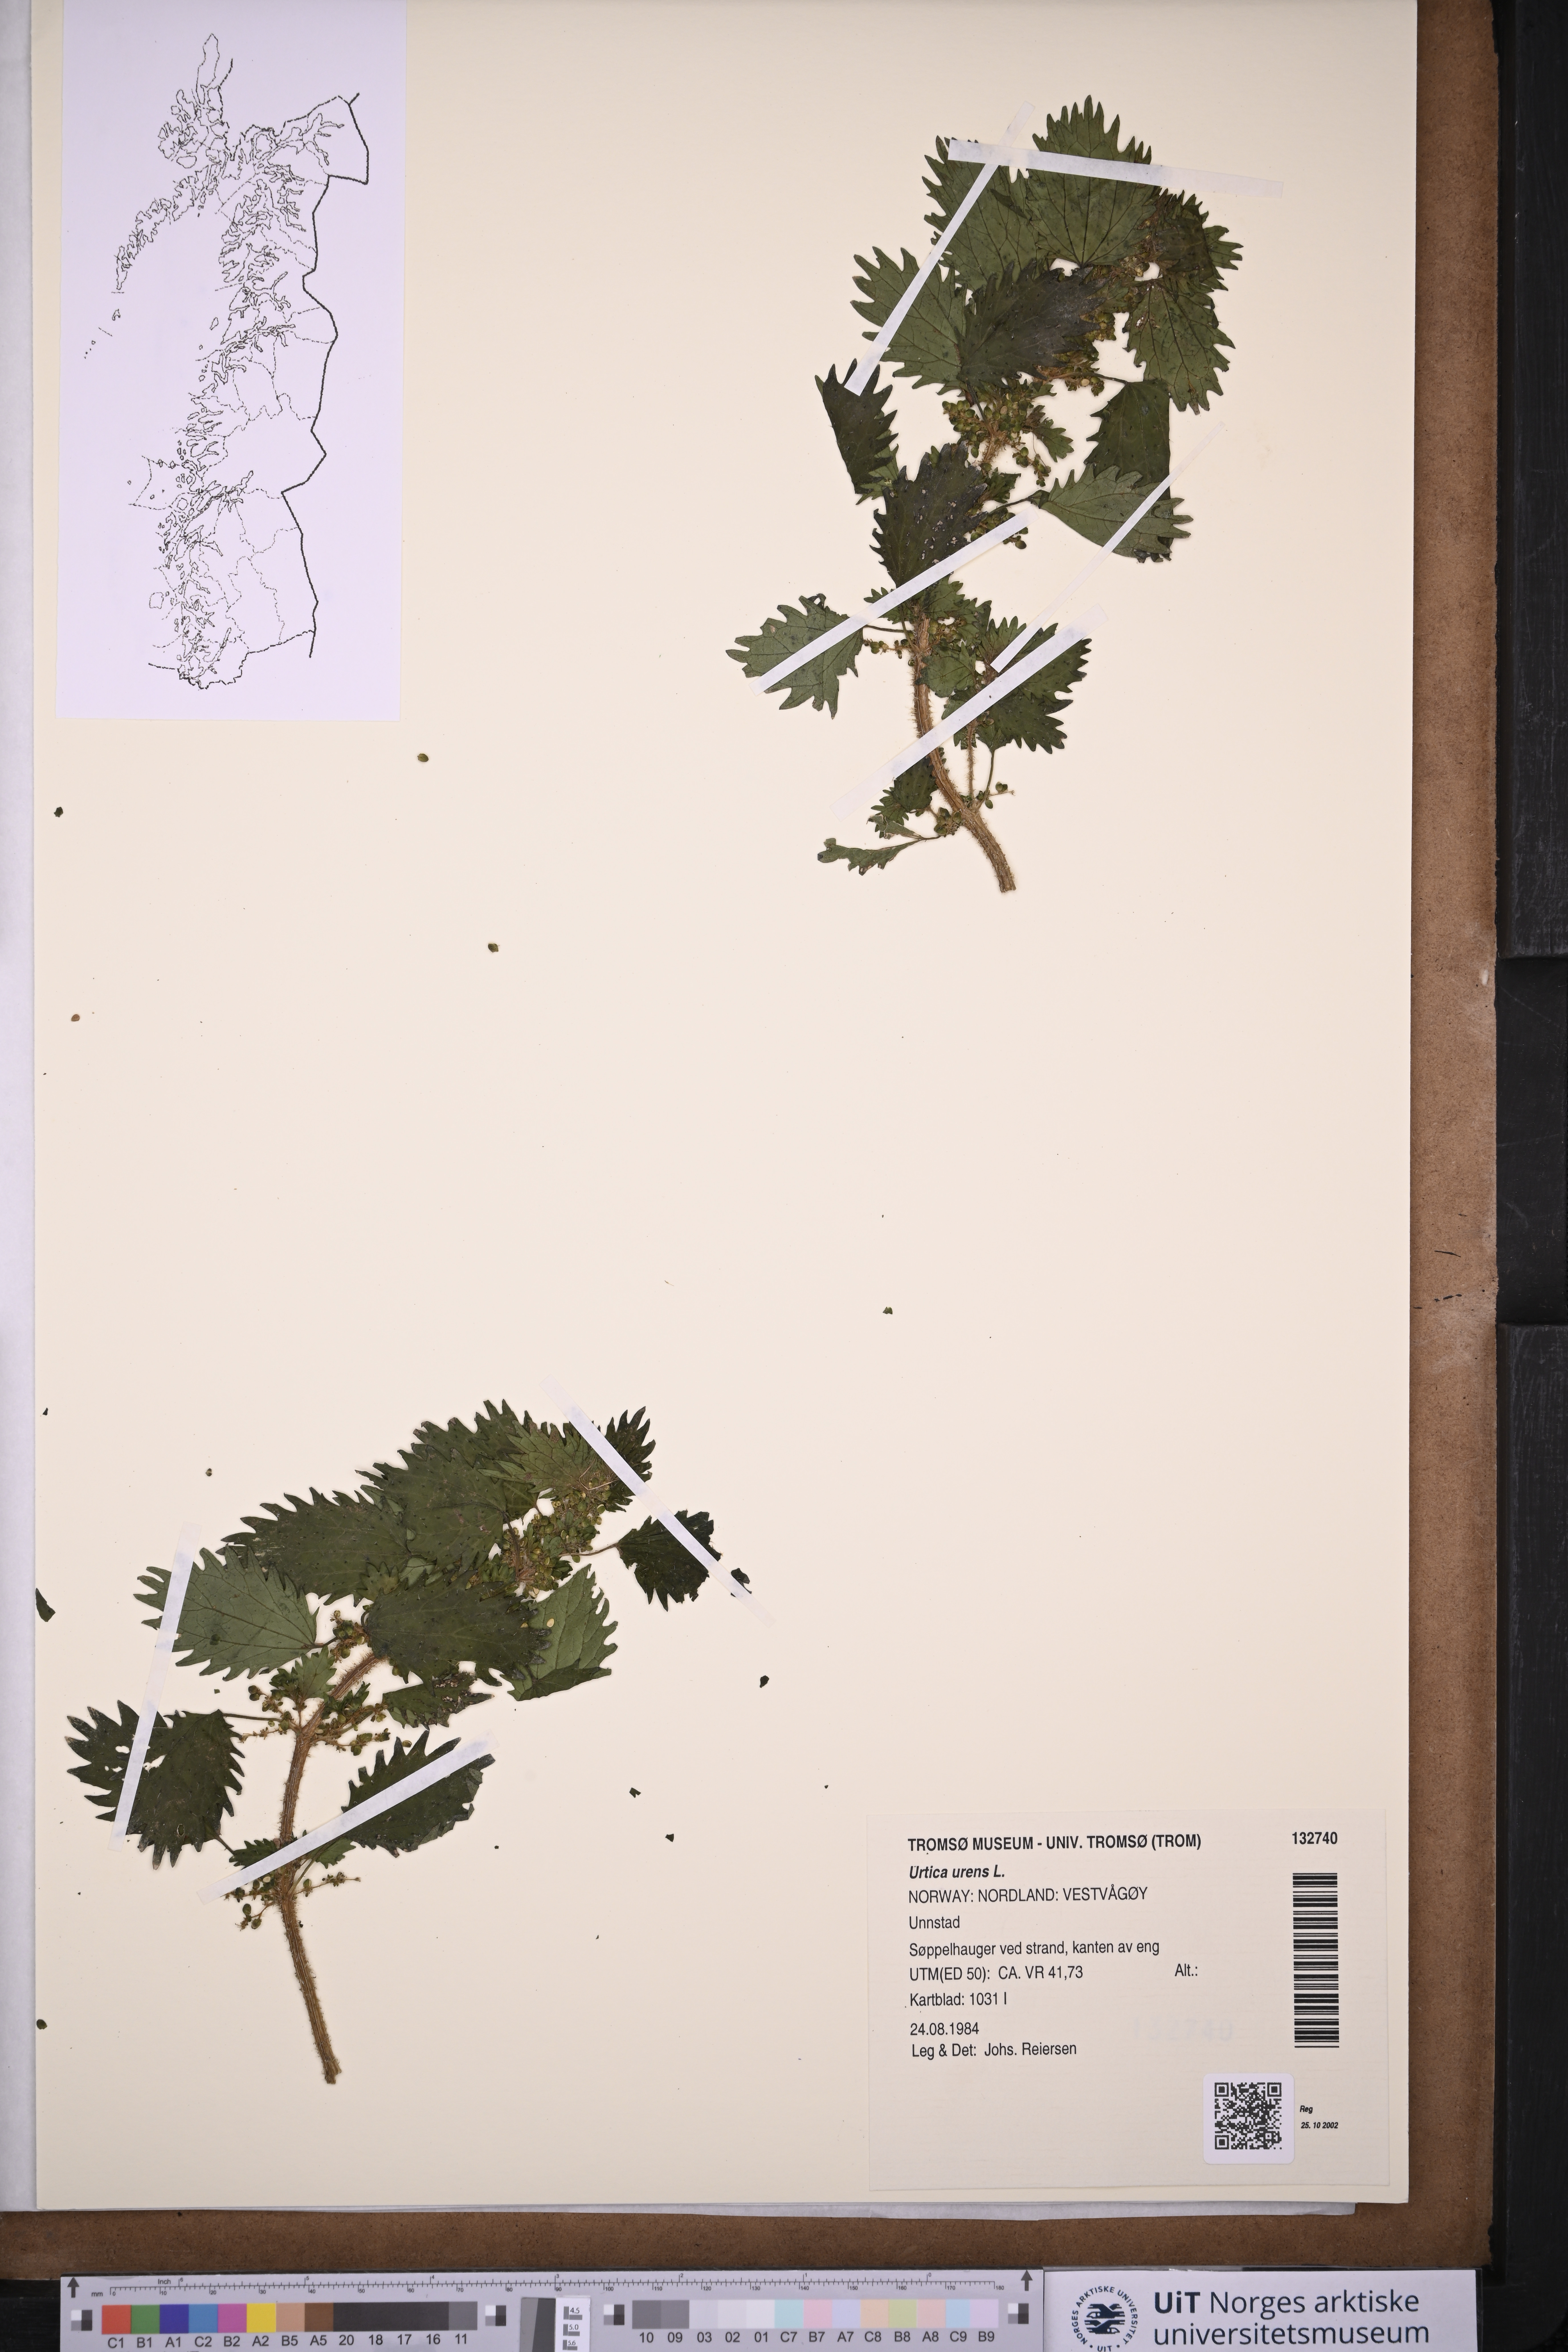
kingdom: Plantae
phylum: Tracheophyta
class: Magnoliopsida
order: Rosales
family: Urticaceae
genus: Urtica
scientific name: Urtica urens
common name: Dwarf nettle
